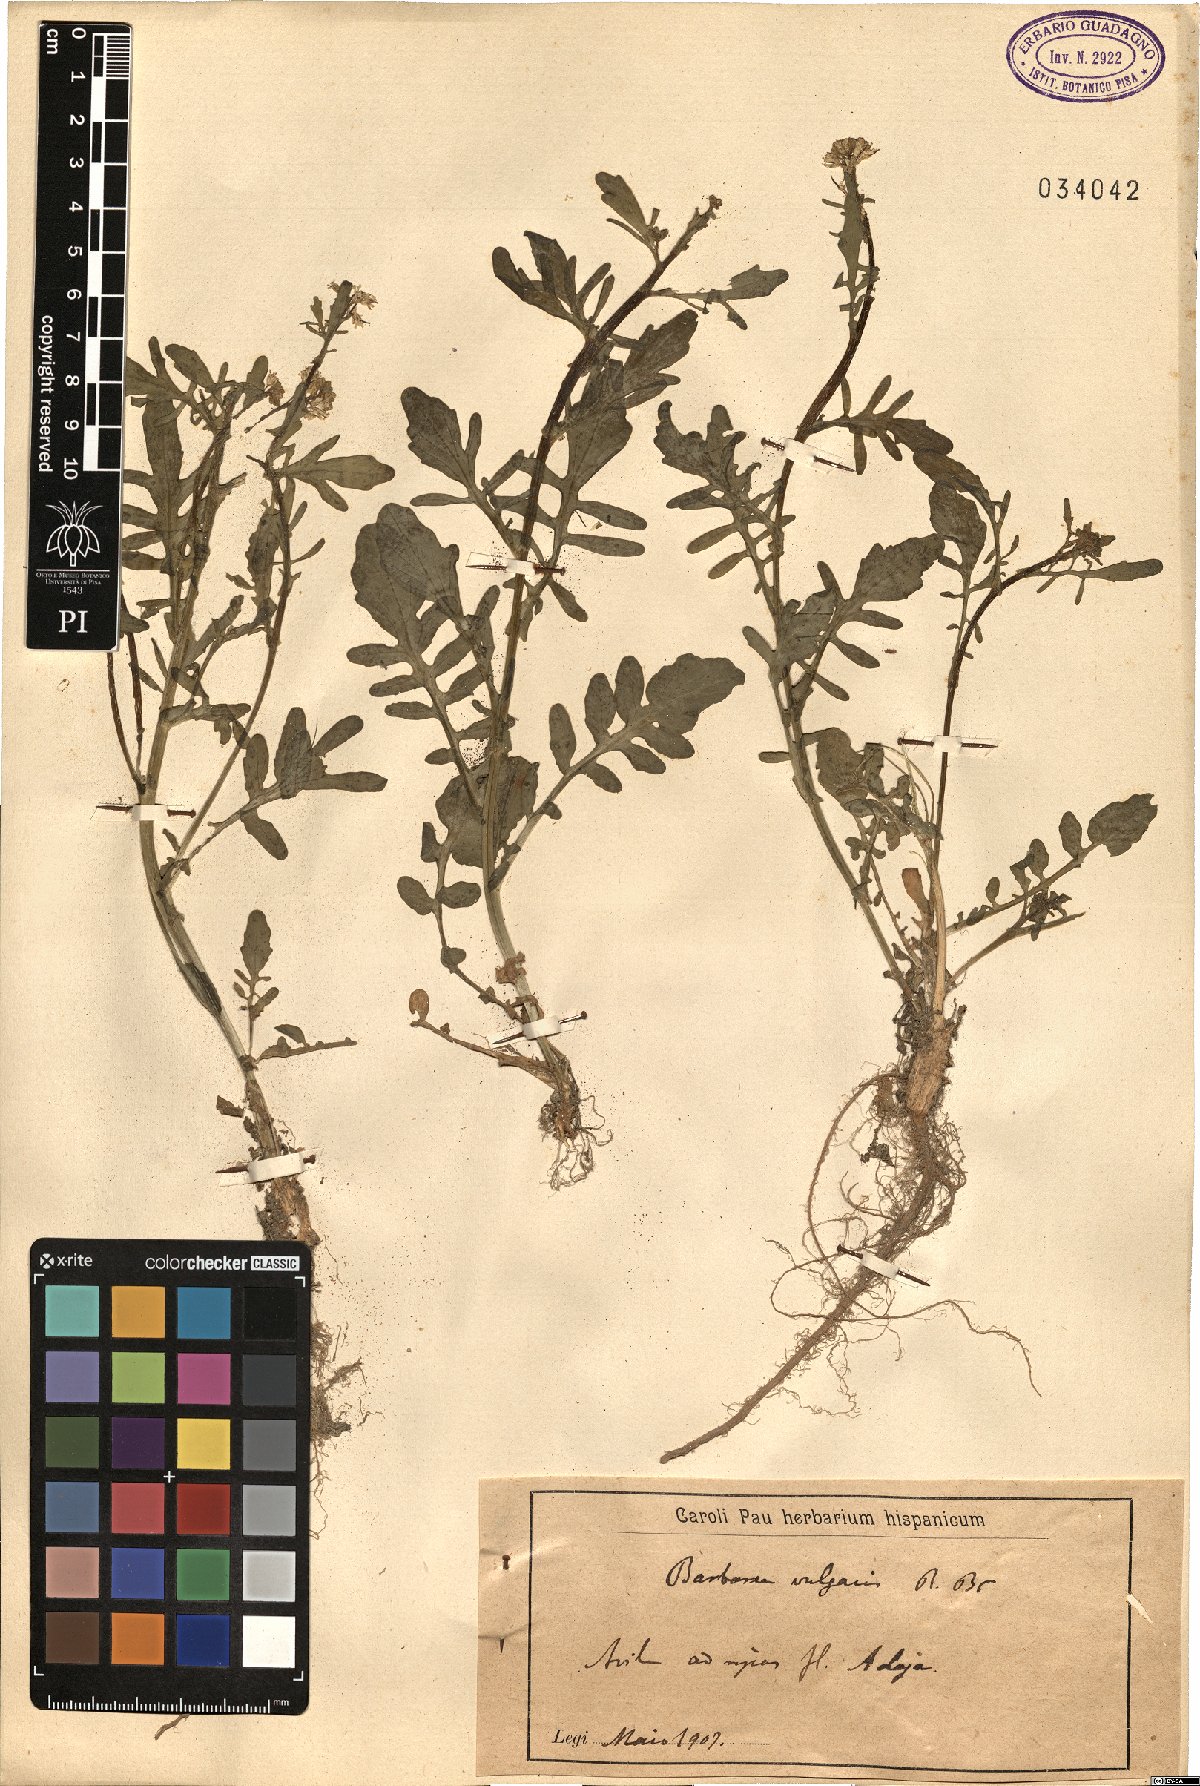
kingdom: Plantae
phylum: Tracheophyta
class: Magnoliopsida
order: Brassicales
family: Brassicaceae
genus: Barbarea
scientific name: Barbarea vulgaris
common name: Cressy-greens
